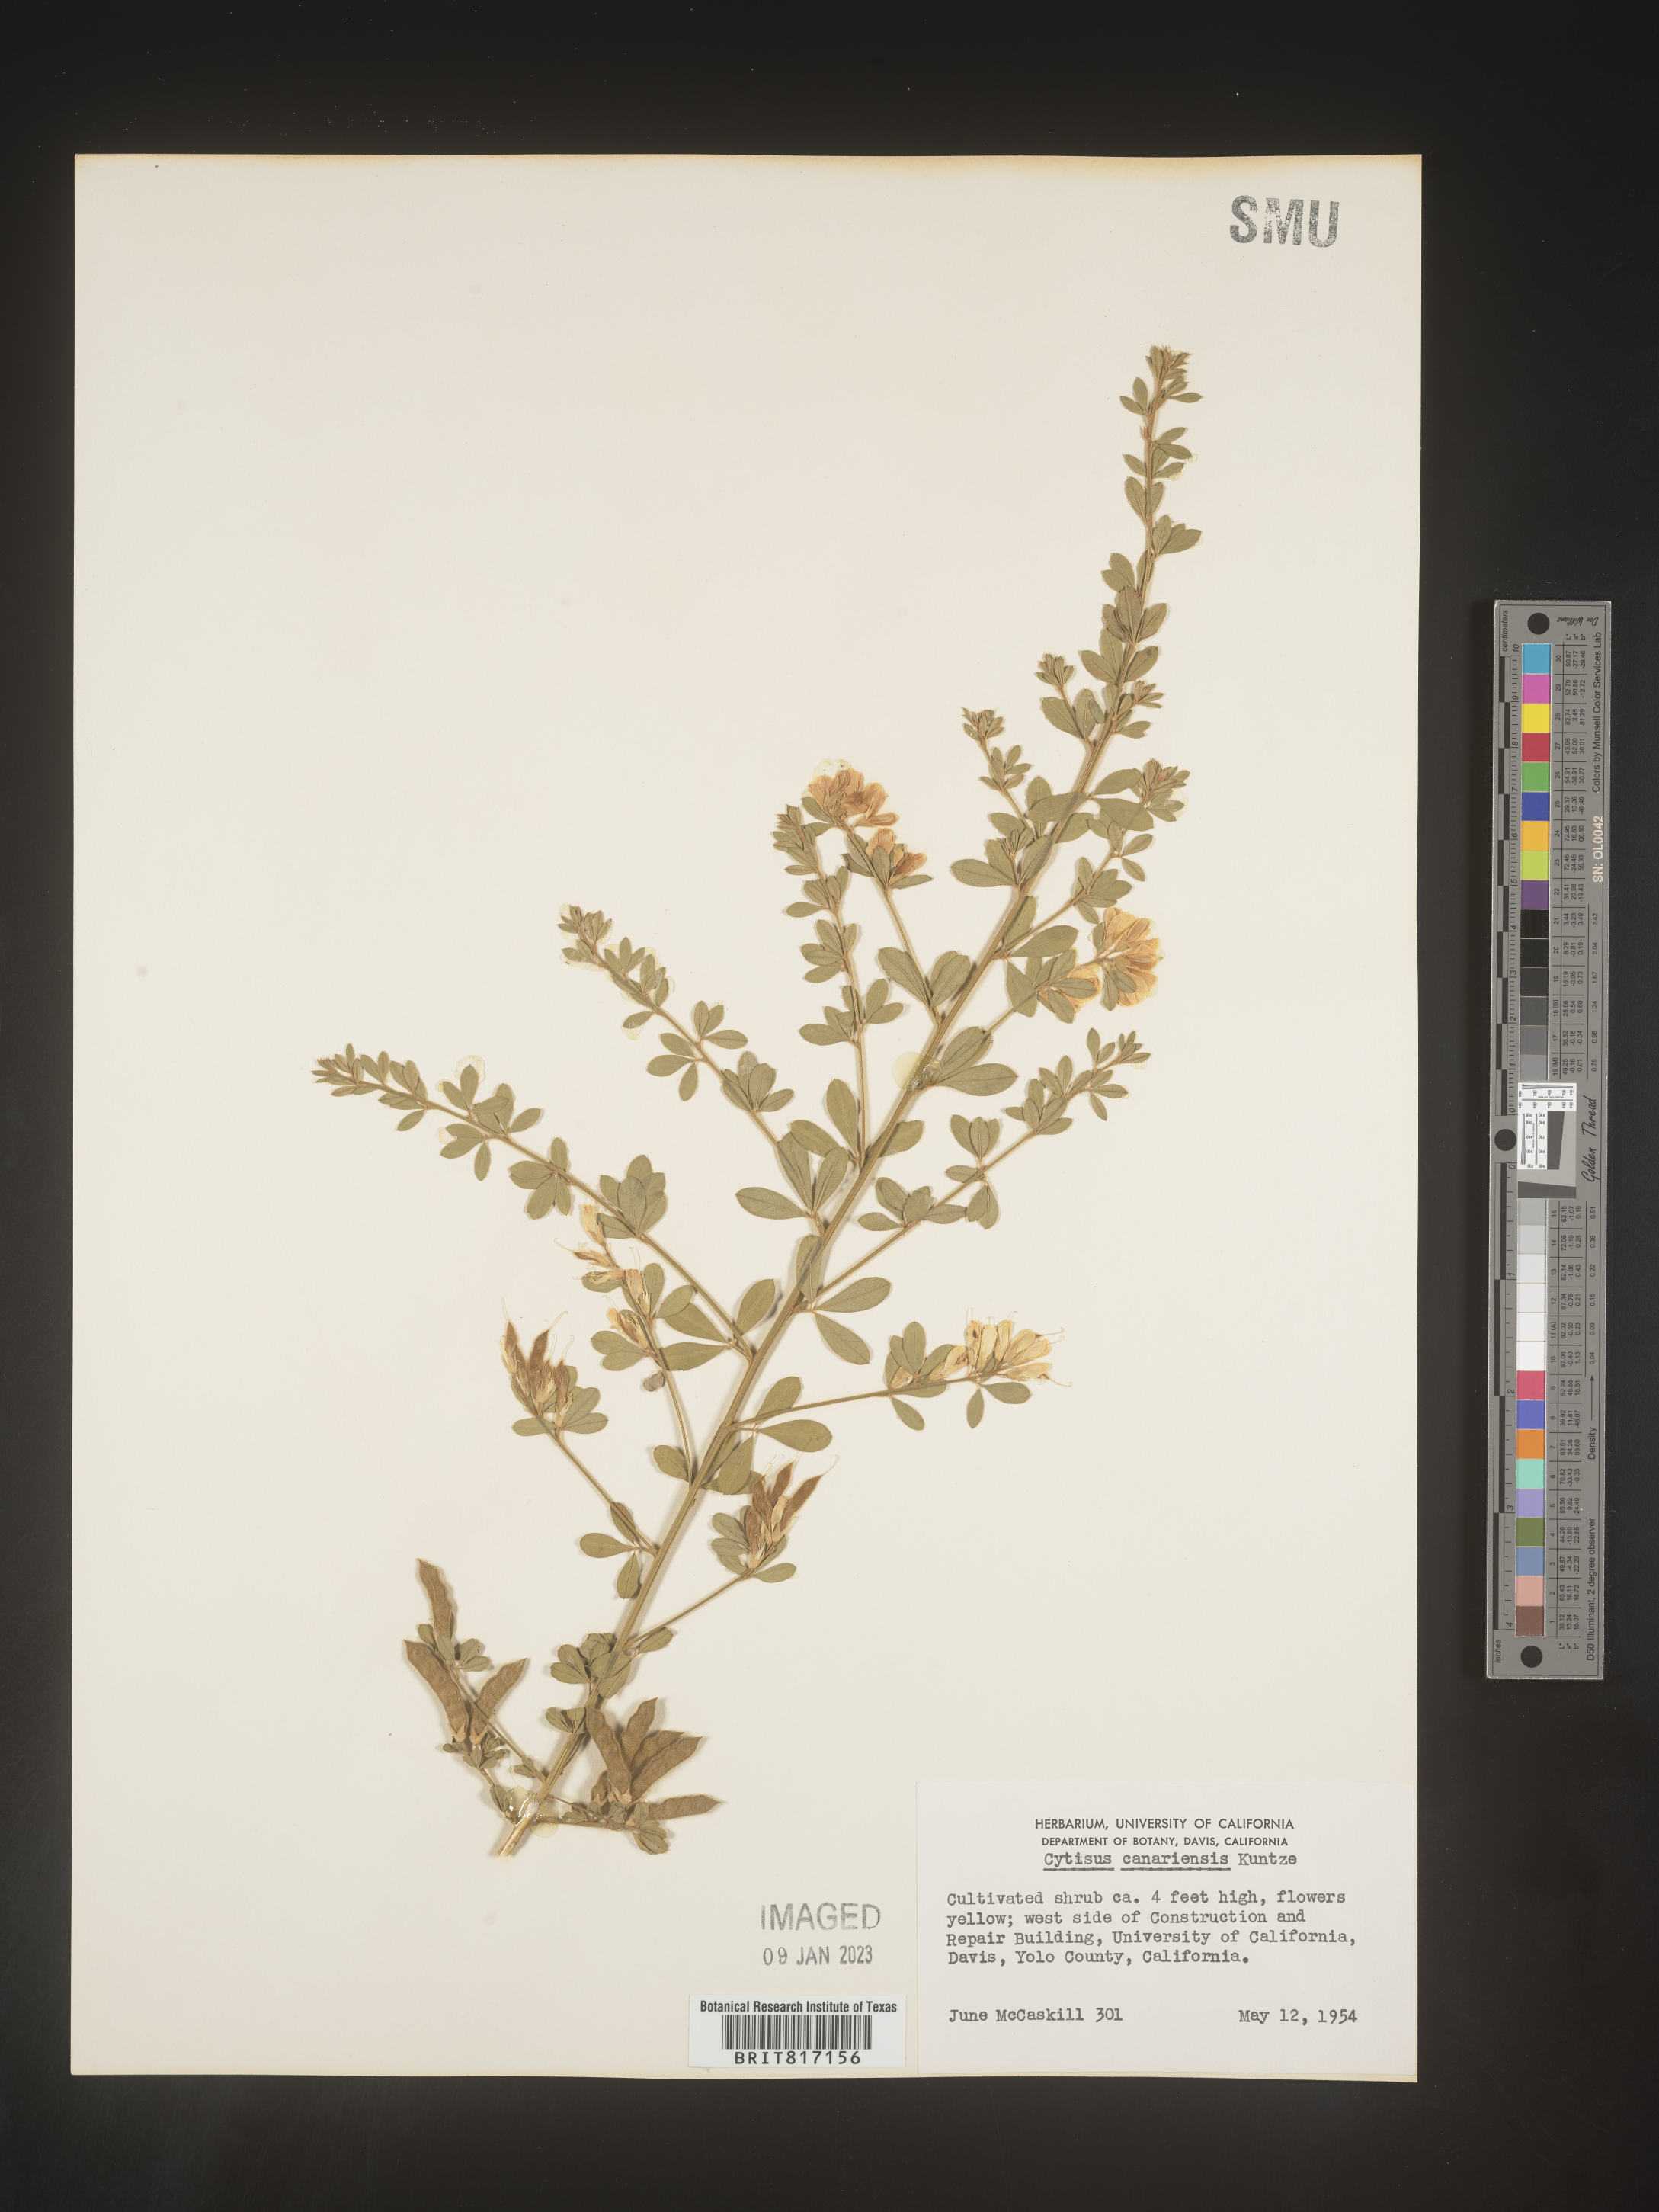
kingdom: Plantae
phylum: Tracheophyta
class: Magnoliopsida
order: Fabales
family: Fabaceae
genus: Cytisus
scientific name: Cytisus
